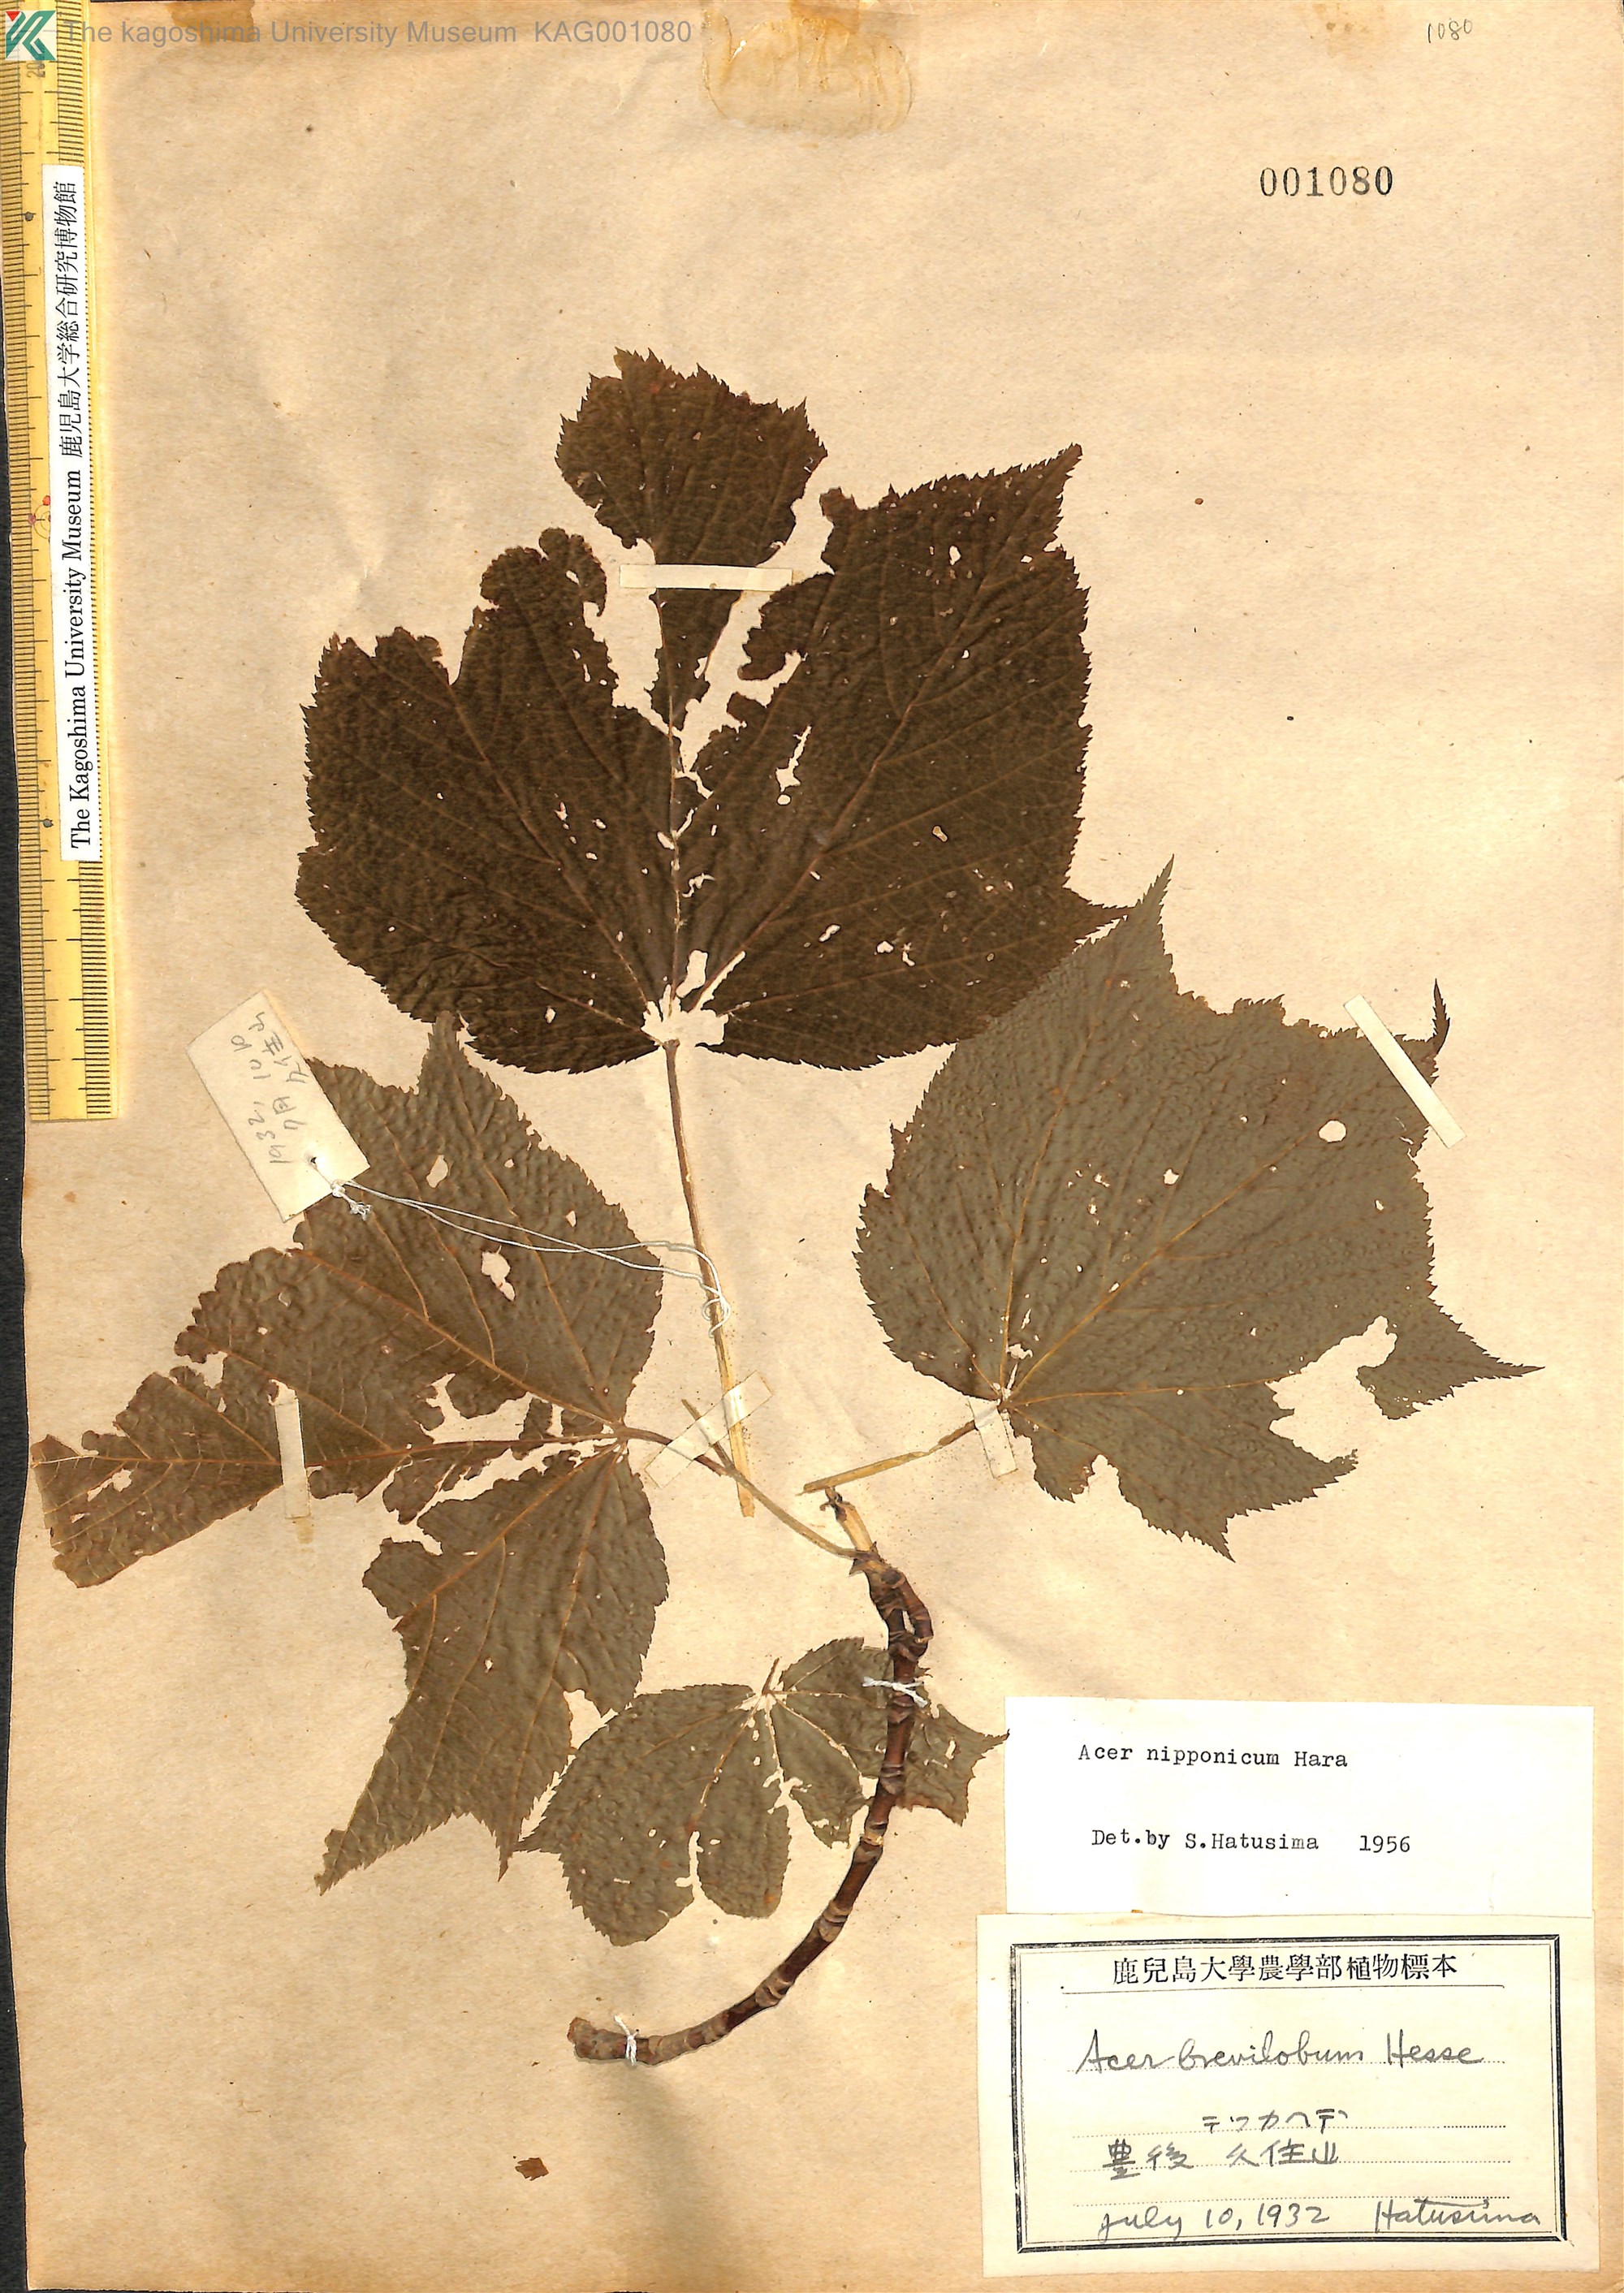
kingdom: Plantae
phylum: Tracheophyta
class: Magnoliopsida
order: Sapindales
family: Sapindaceae
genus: Acer
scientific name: Acer nipponicum
